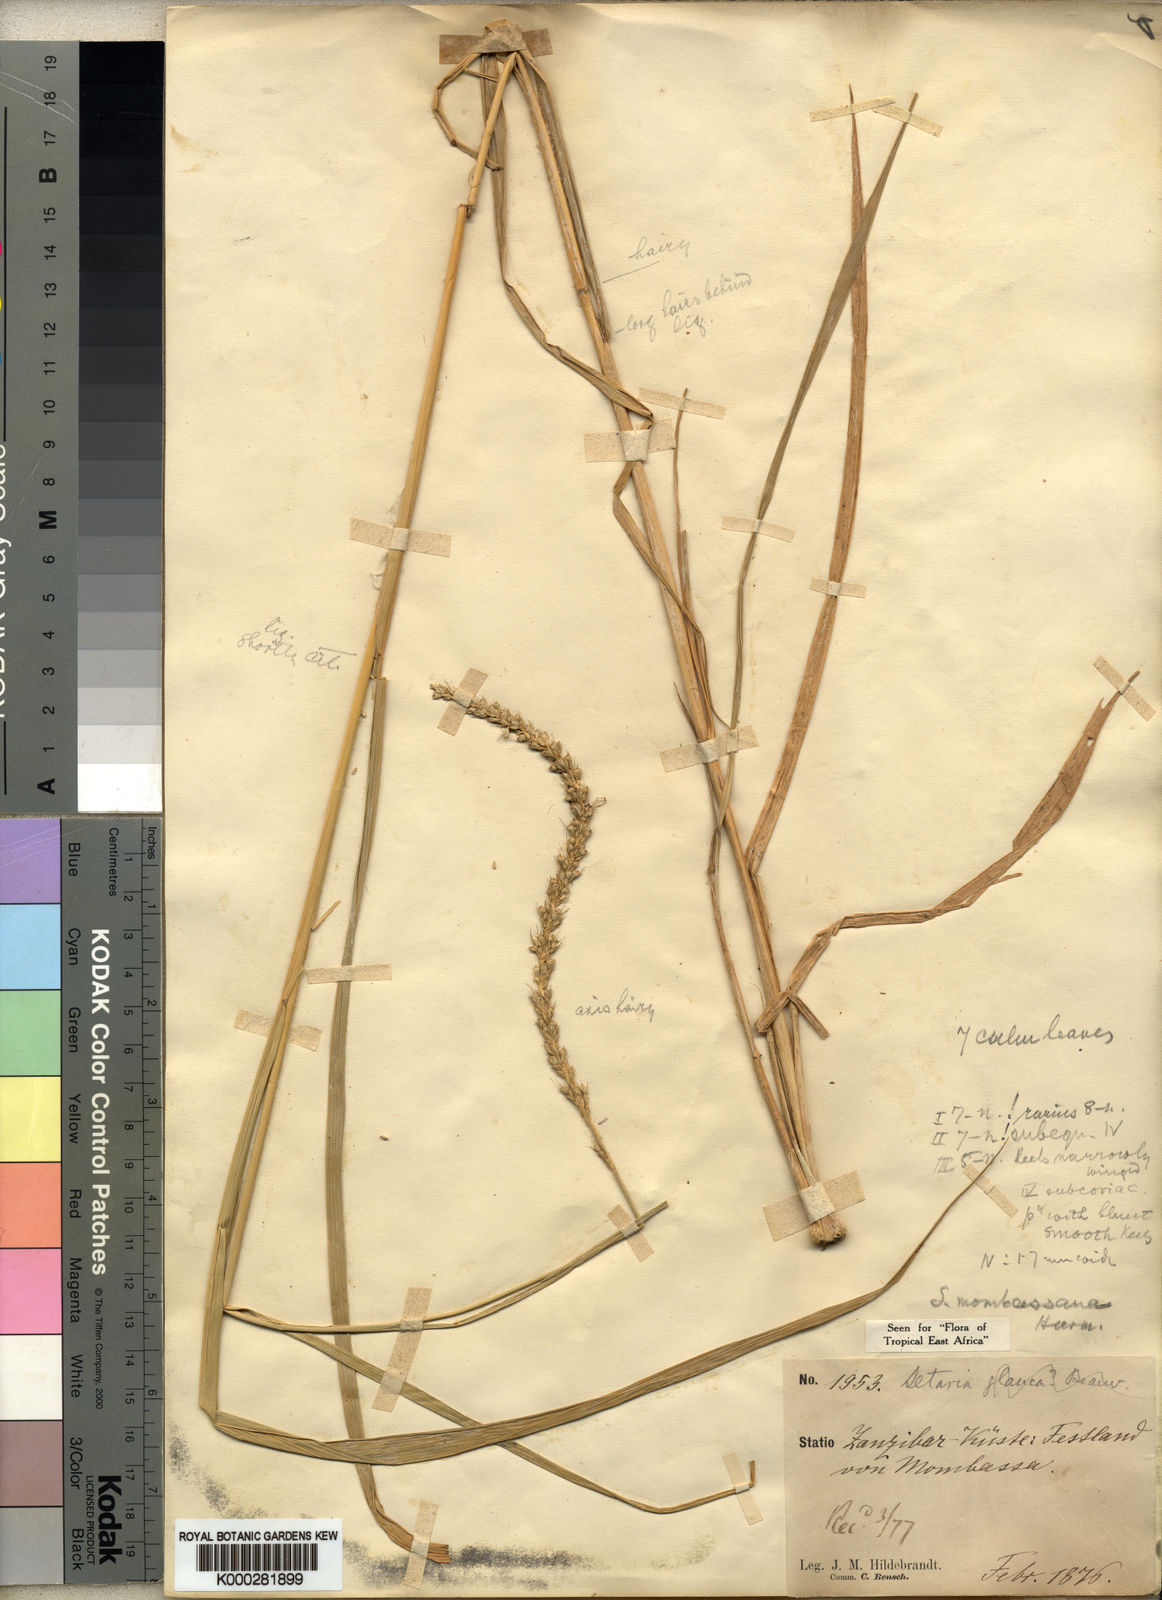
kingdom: Plantae
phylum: Tracheophyta
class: Liliopsida
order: Poales
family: Poaceae
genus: Setaria
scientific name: Setaria incrassata
